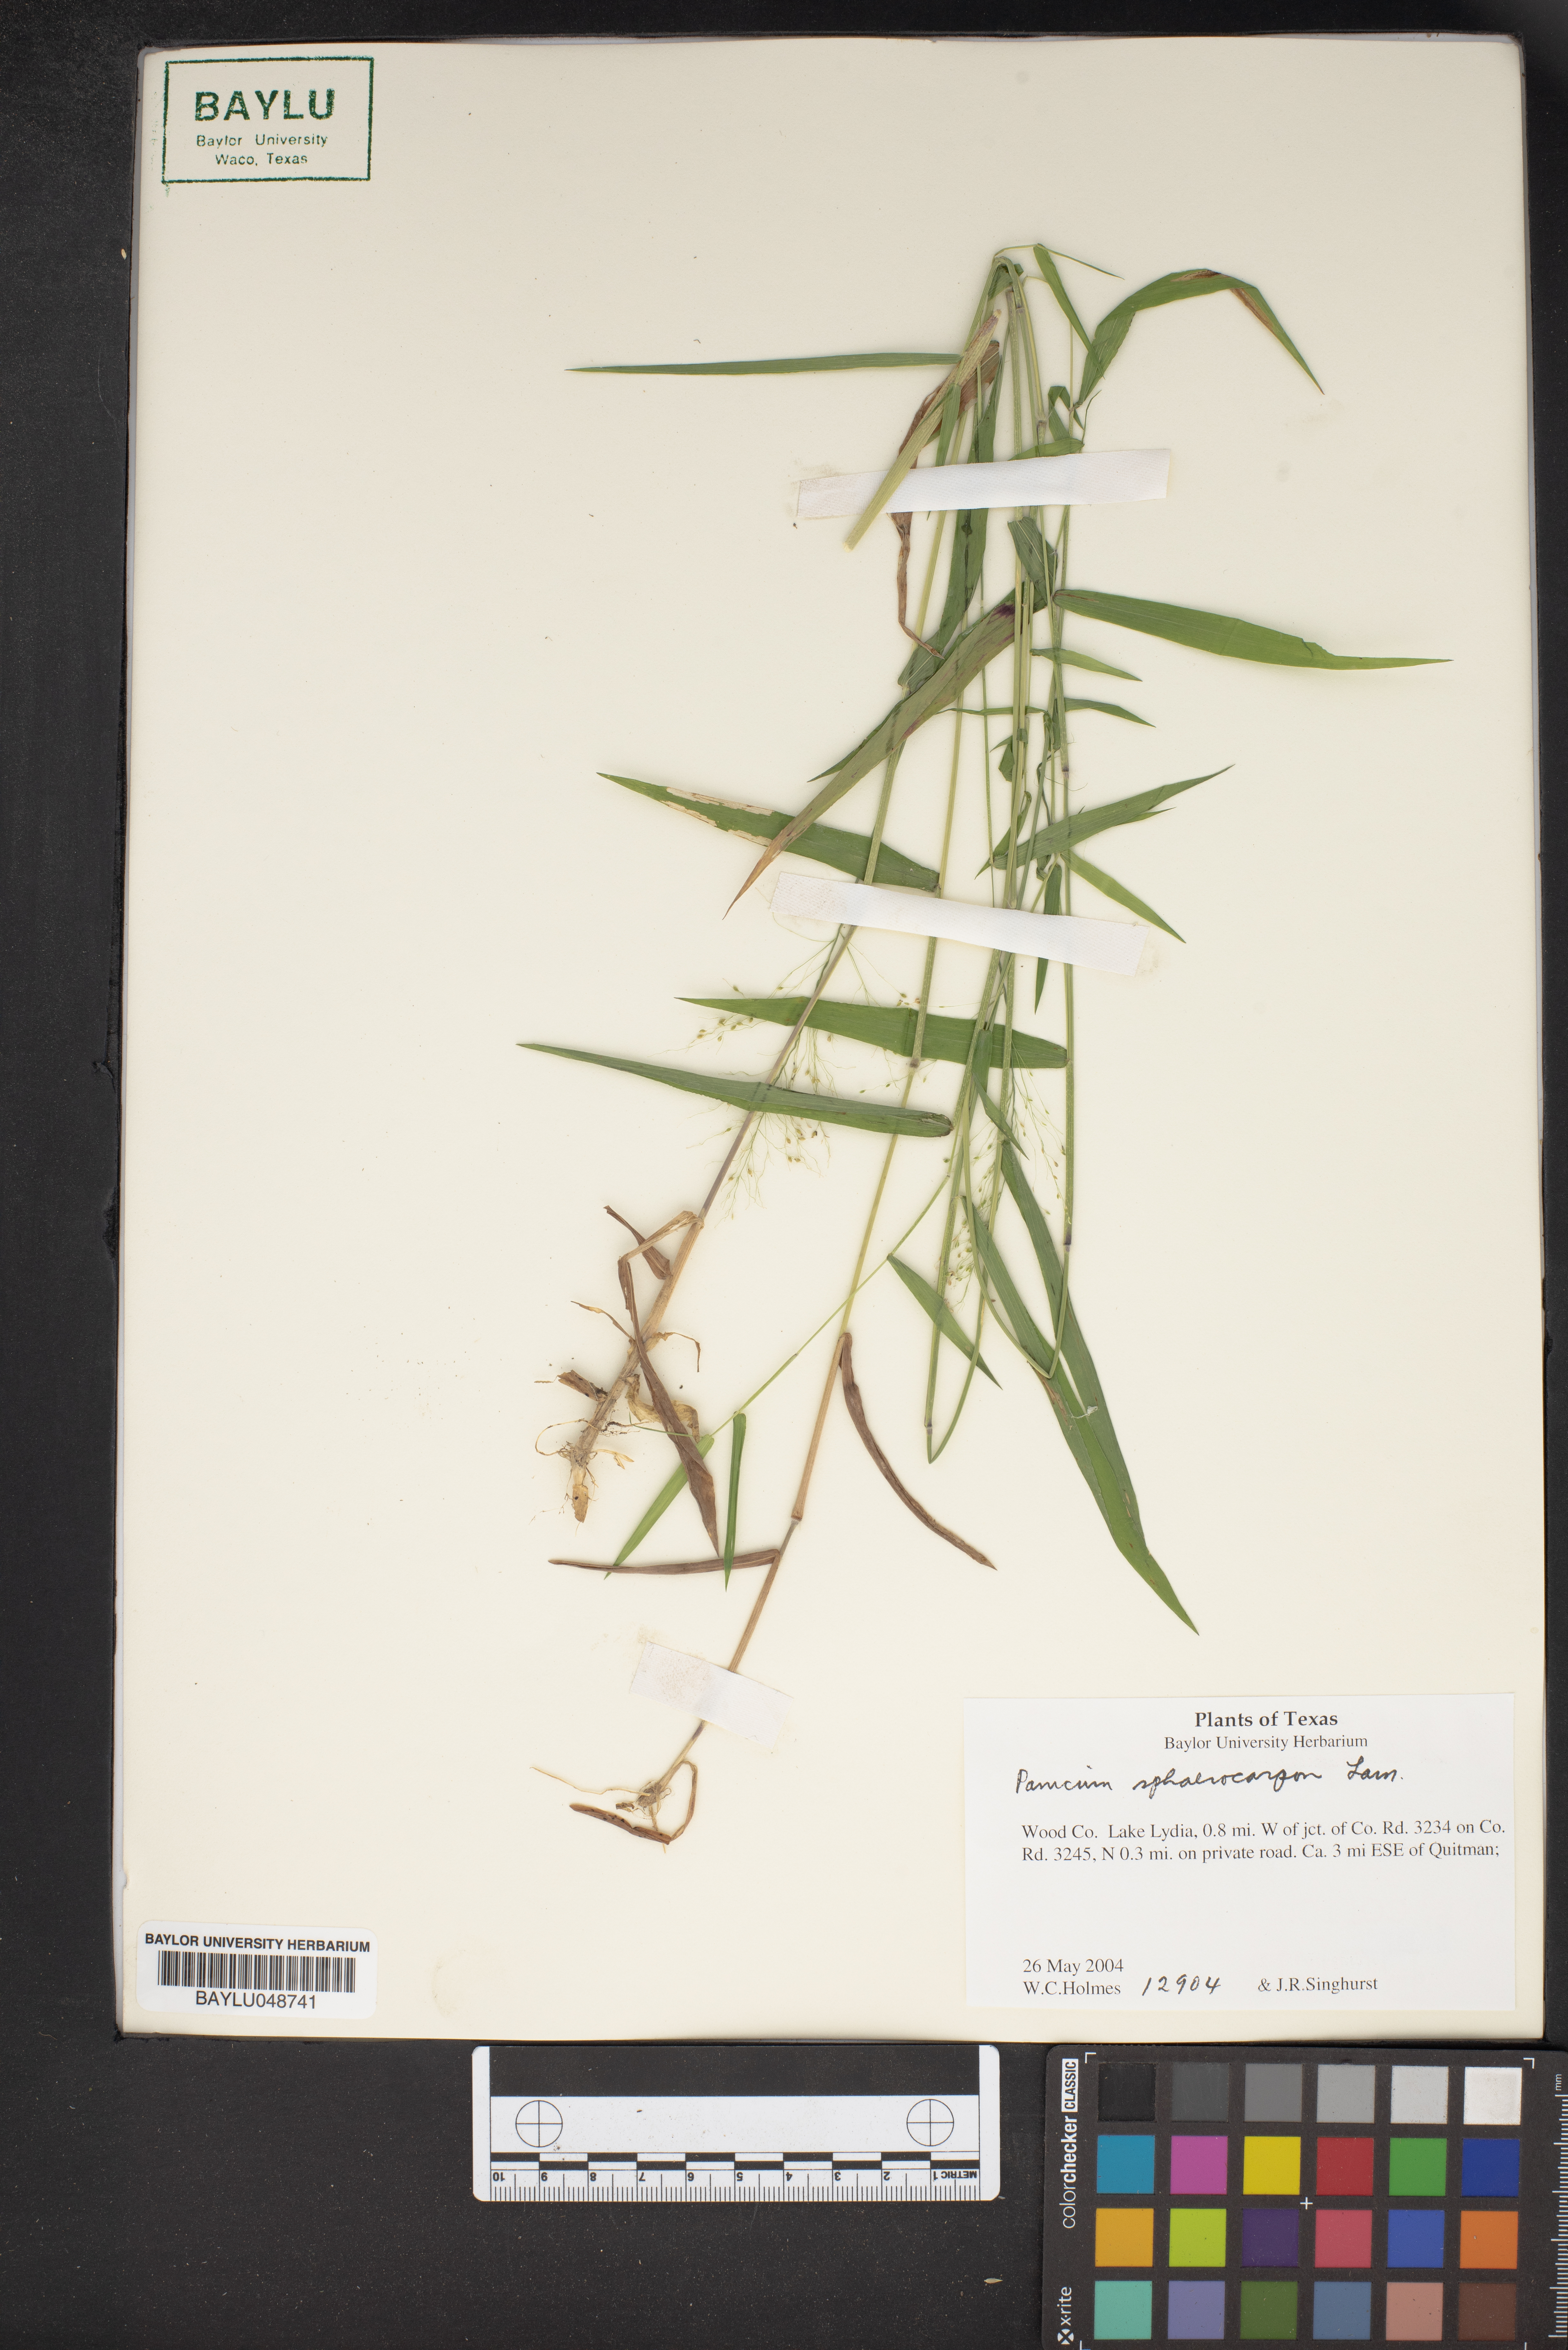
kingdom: Plantae
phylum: Tracheophyta
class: Liliopsida
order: Poales
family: Poaceae
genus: Dichanthelium
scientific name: Dichanthelium sphaerocarpon
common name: Round-fruited panicgrass
